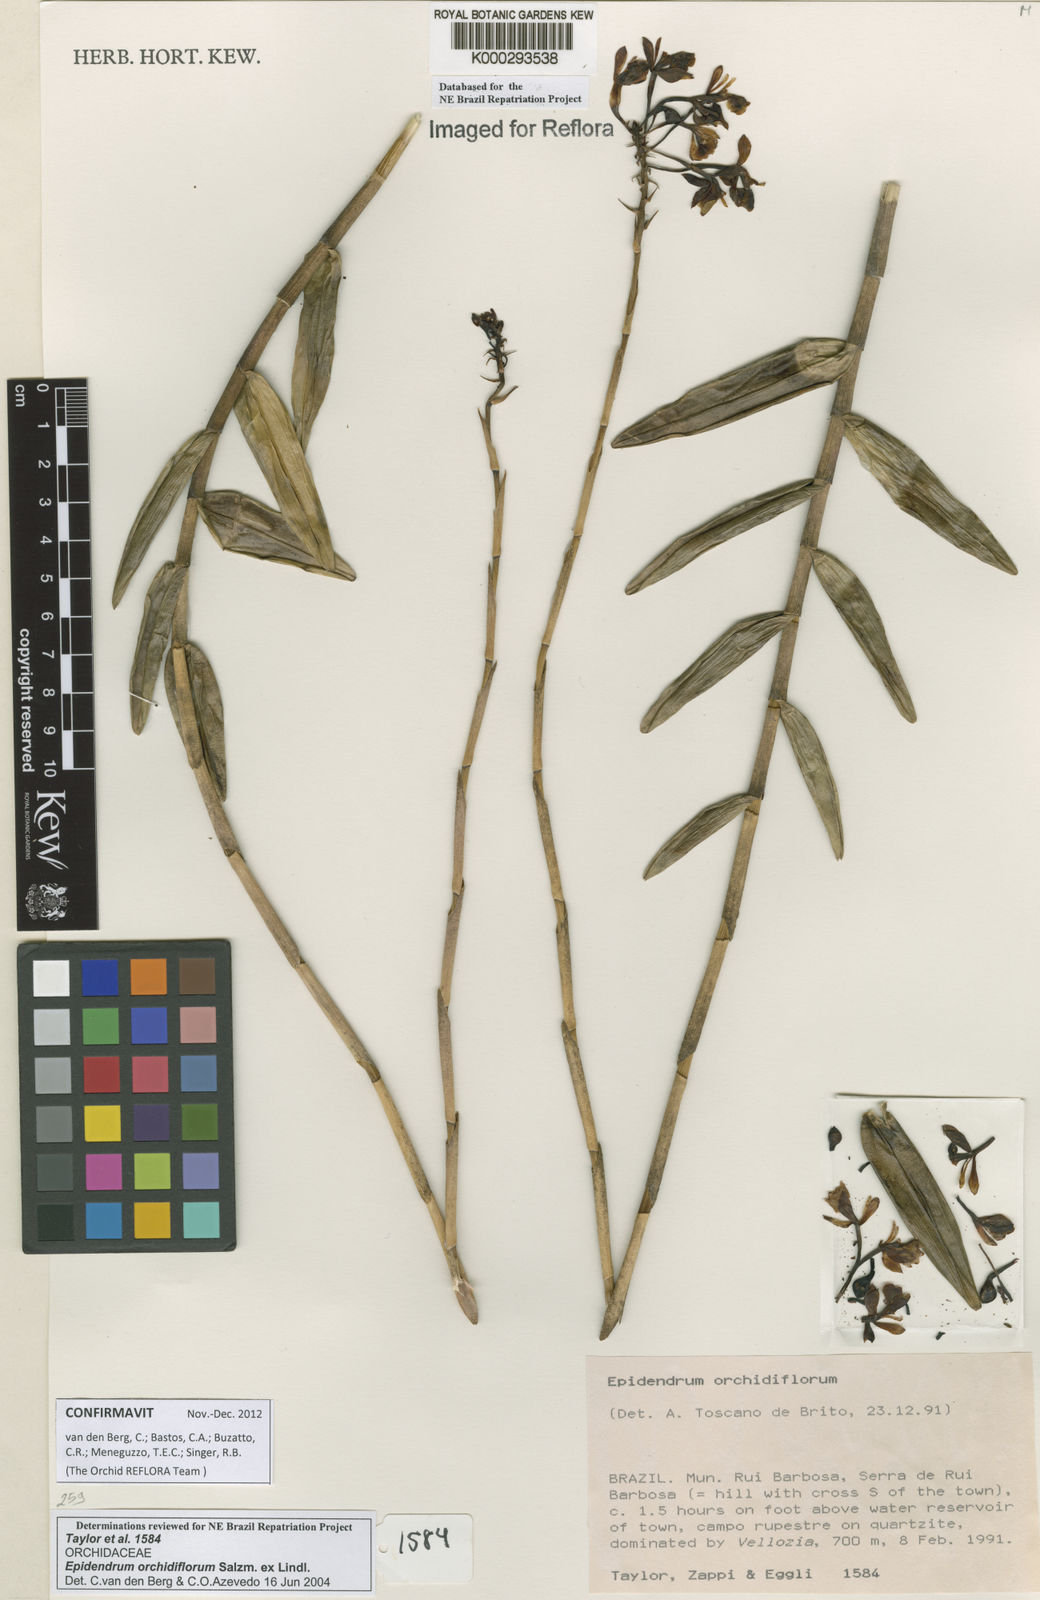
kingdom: Plantae
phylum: Tracheophyta
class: Liliopsida
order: Asparagales
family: Orchidaceae
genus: Epidendrum
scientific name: Epidendrum orchidiflorum
